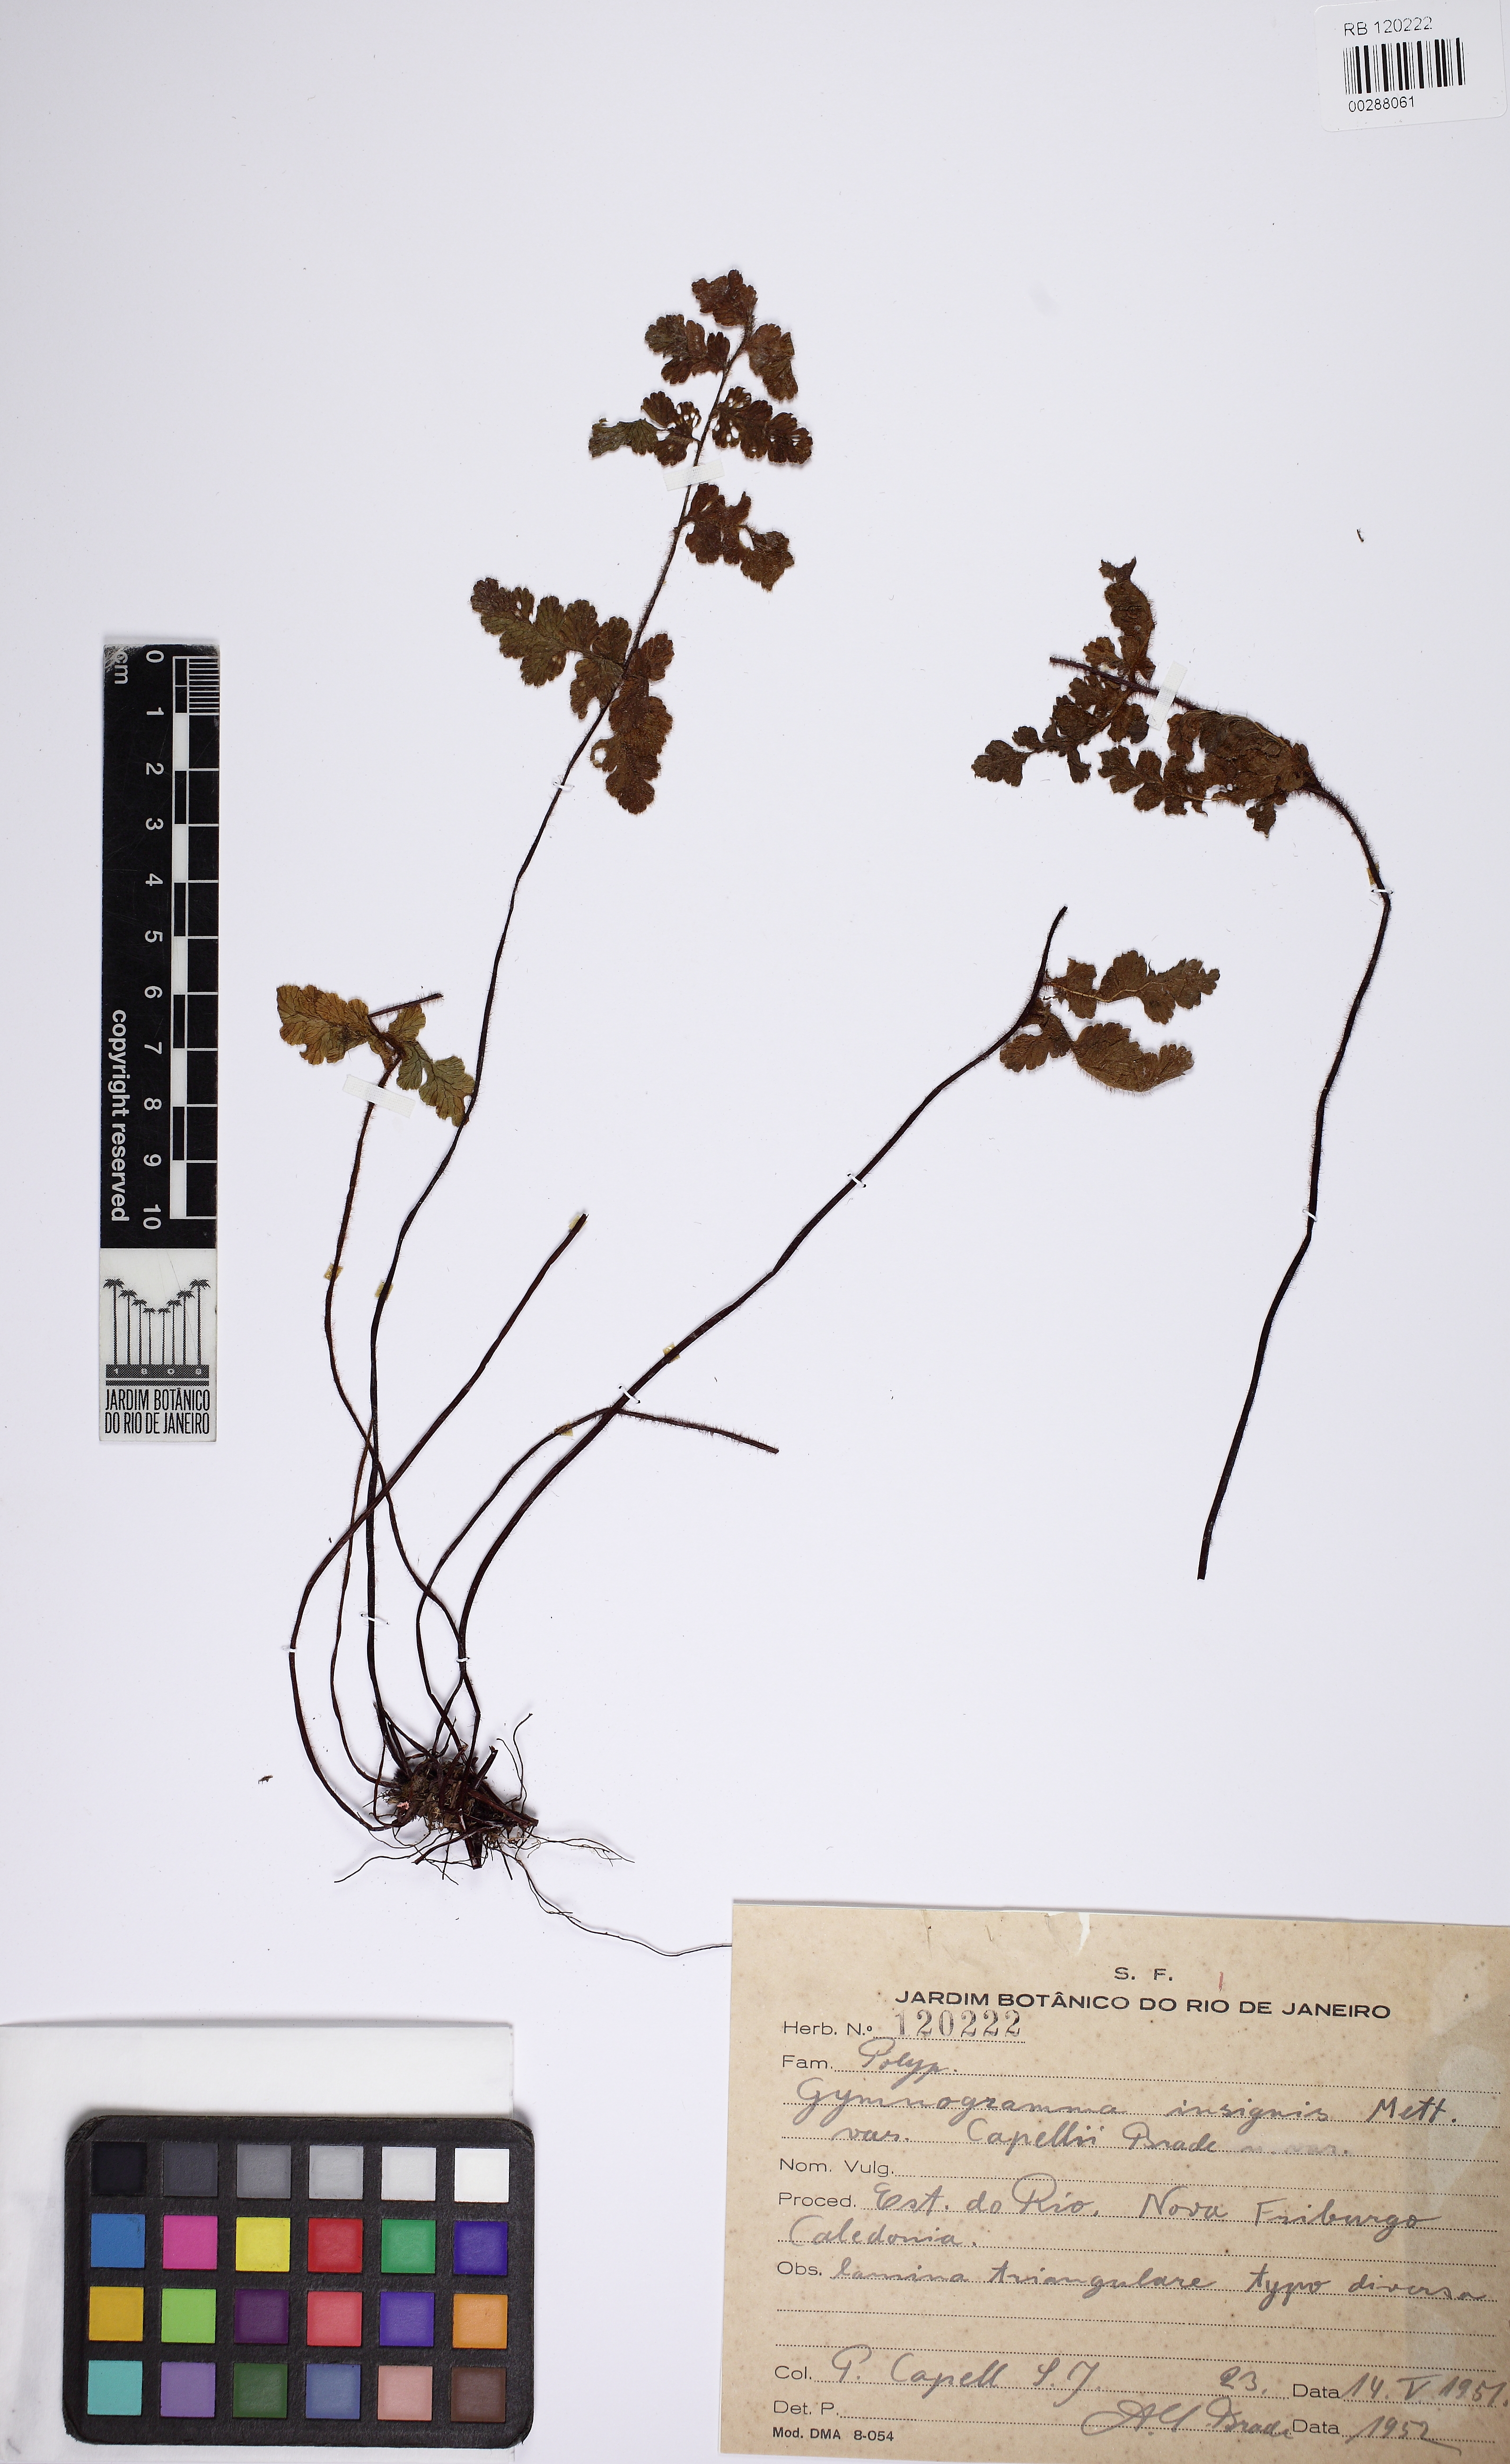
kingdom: Plantae
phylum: Tracheophyta
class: Polypodiopsida
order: Polypodiales
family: Pteridaceae
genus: Jamesonia
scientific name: Jamesonia rufescens
